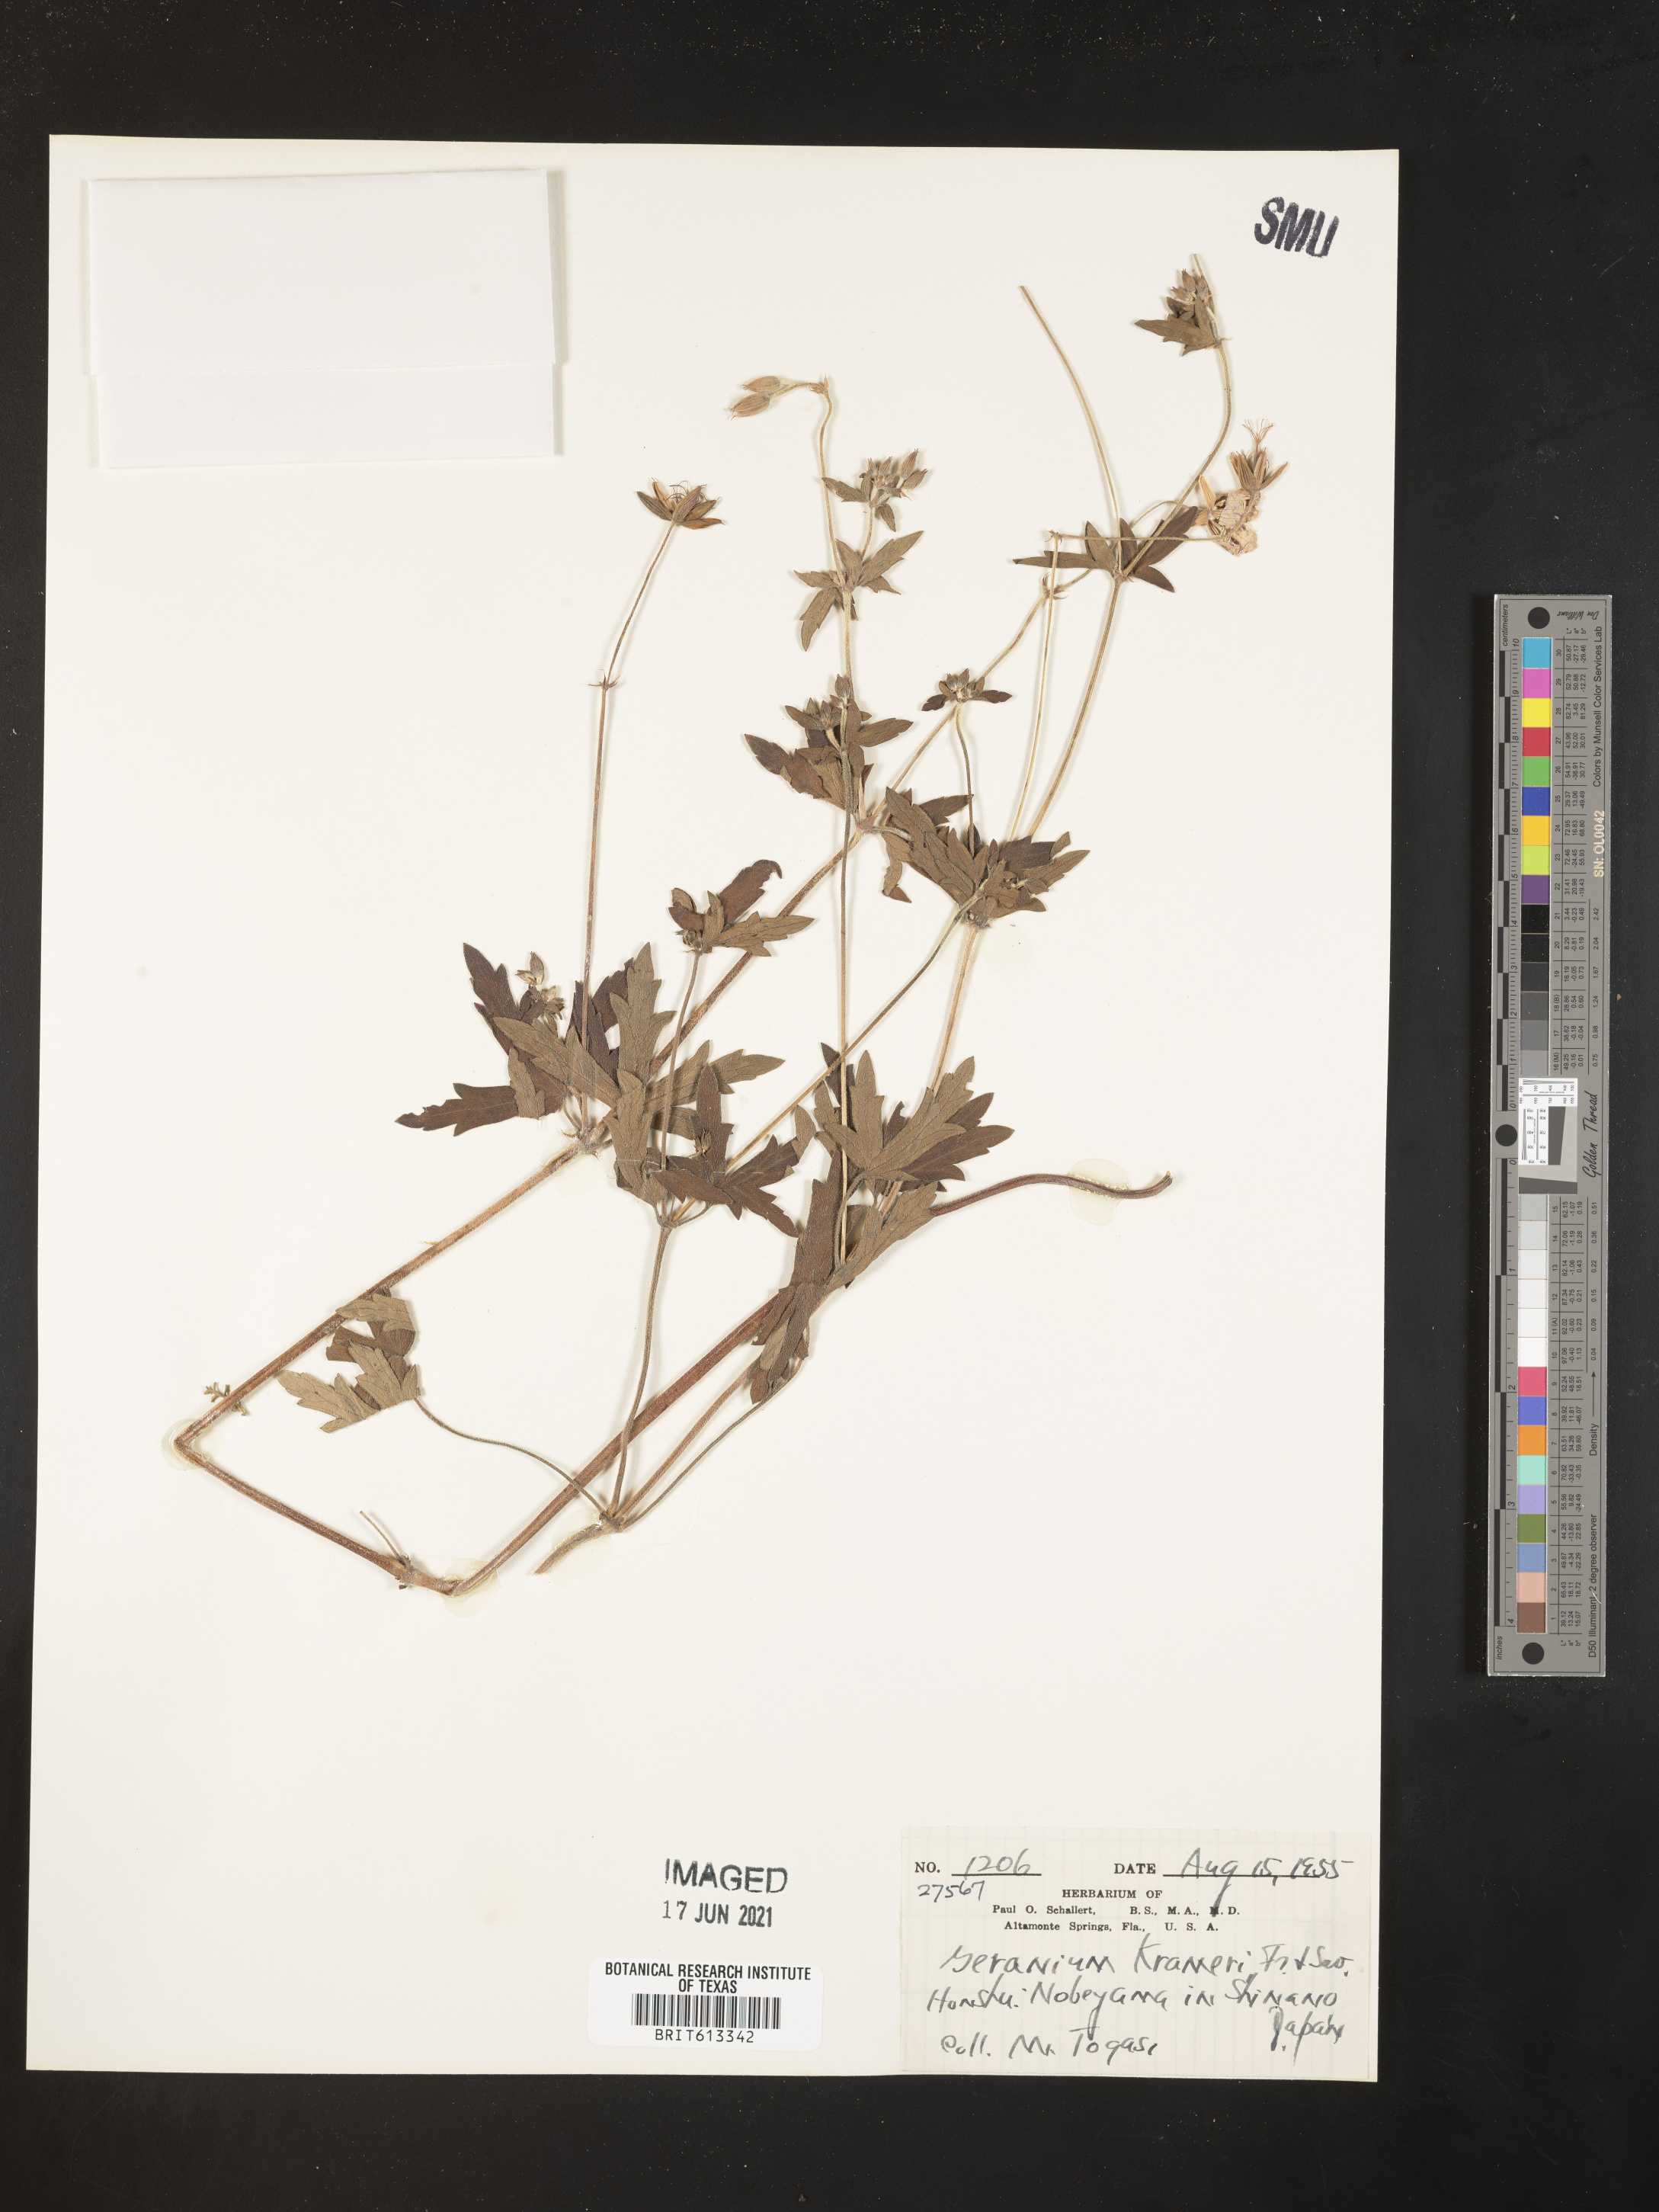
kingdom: Plantae
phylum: Tracheophyta
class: Magnoliopsida
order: Geraniales
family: Geraniaceae
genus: Geranium
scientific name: Geranium krameri
